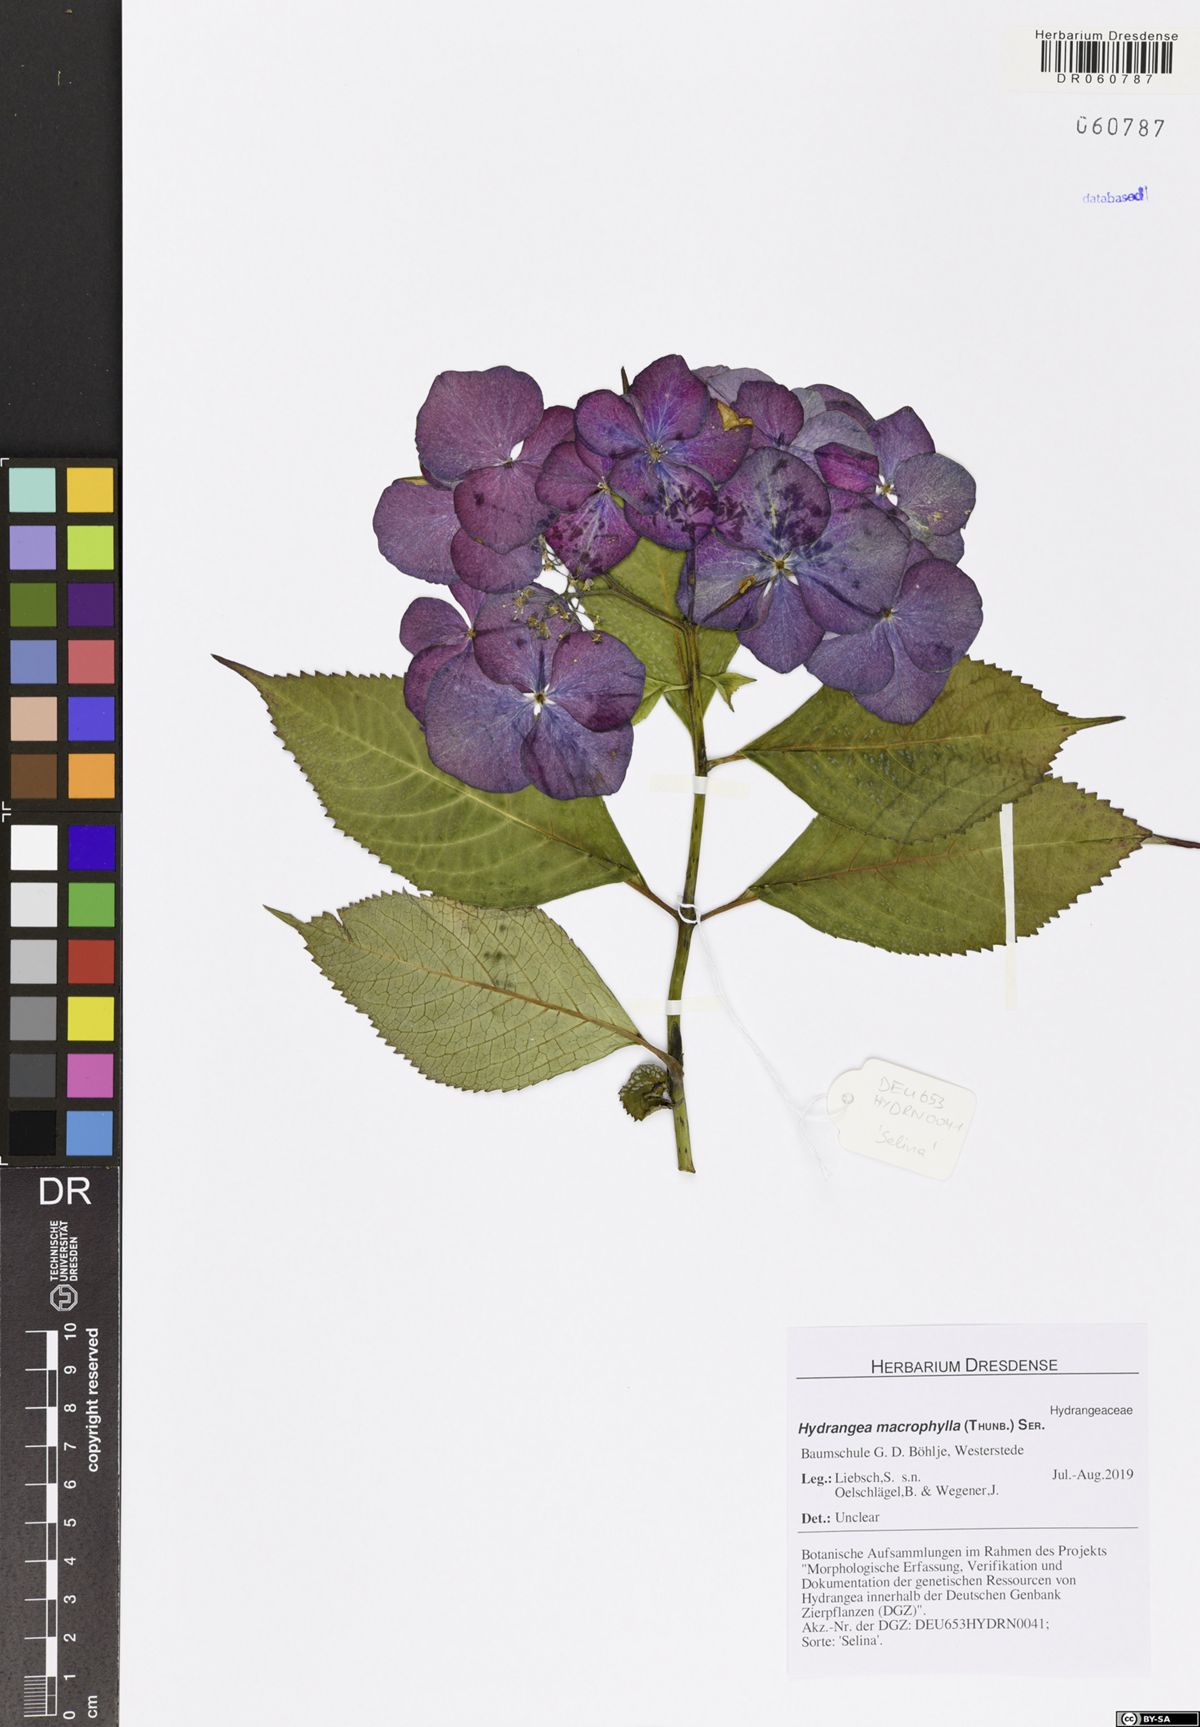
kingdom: Plantae
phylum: Tracheophyta
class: Magnoliopsida
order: Cornales
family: Hydrangeaceae
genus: Hydrangea
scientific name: Hydrangea macrophylla
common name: Hydrangea
